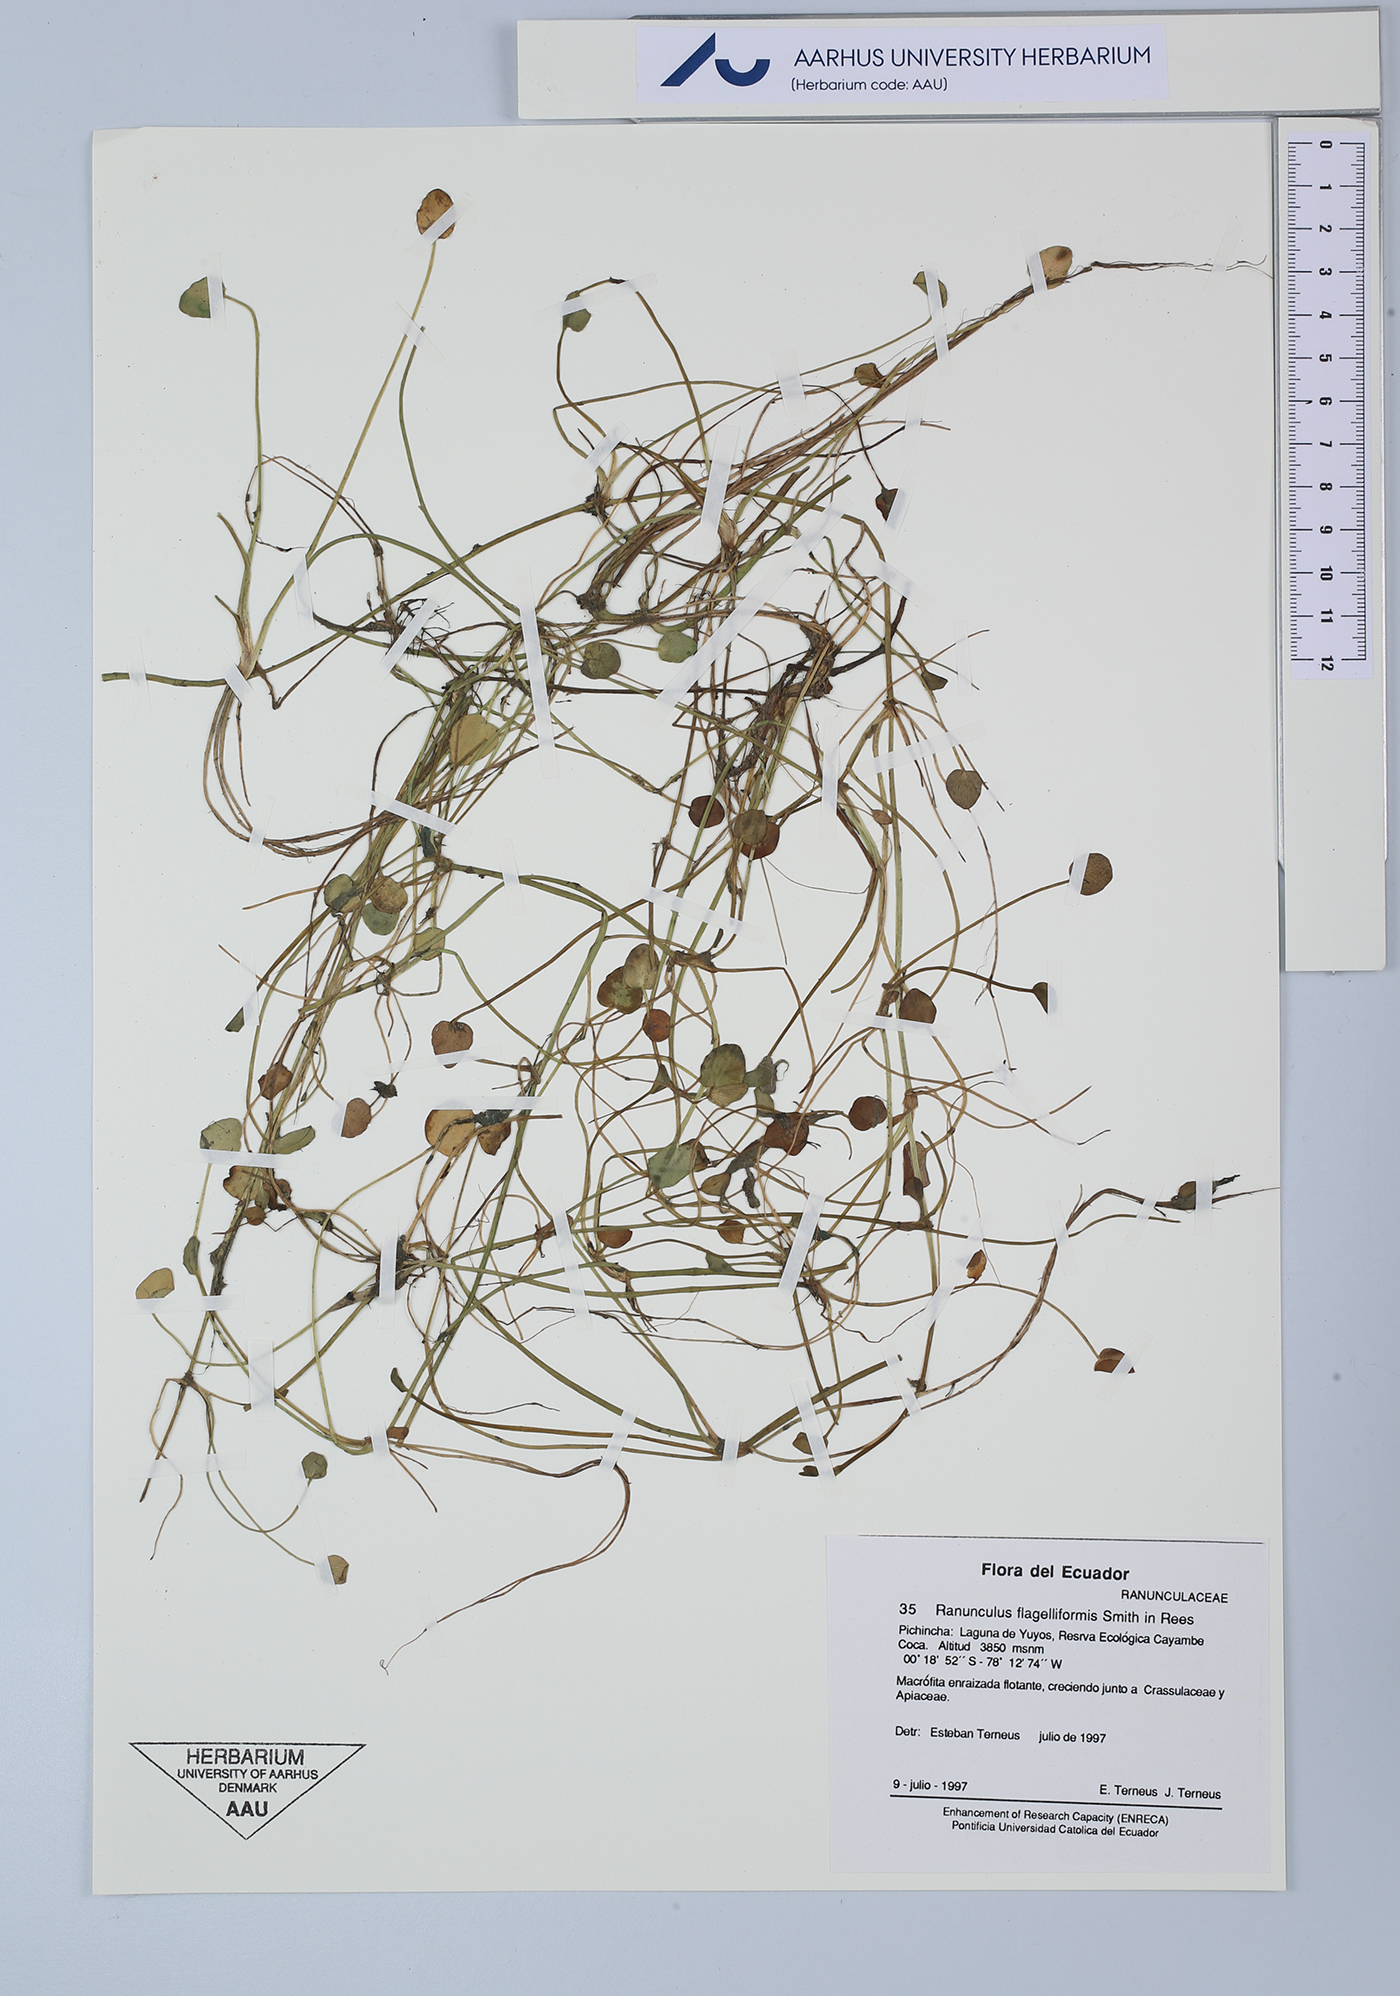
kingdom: Plantae
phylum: Tracheophyta
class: Magnoliopsida
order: Ranunculales
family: Ranunculaceae
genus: Ranunculus
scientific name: Ranunculus flagelliformis
